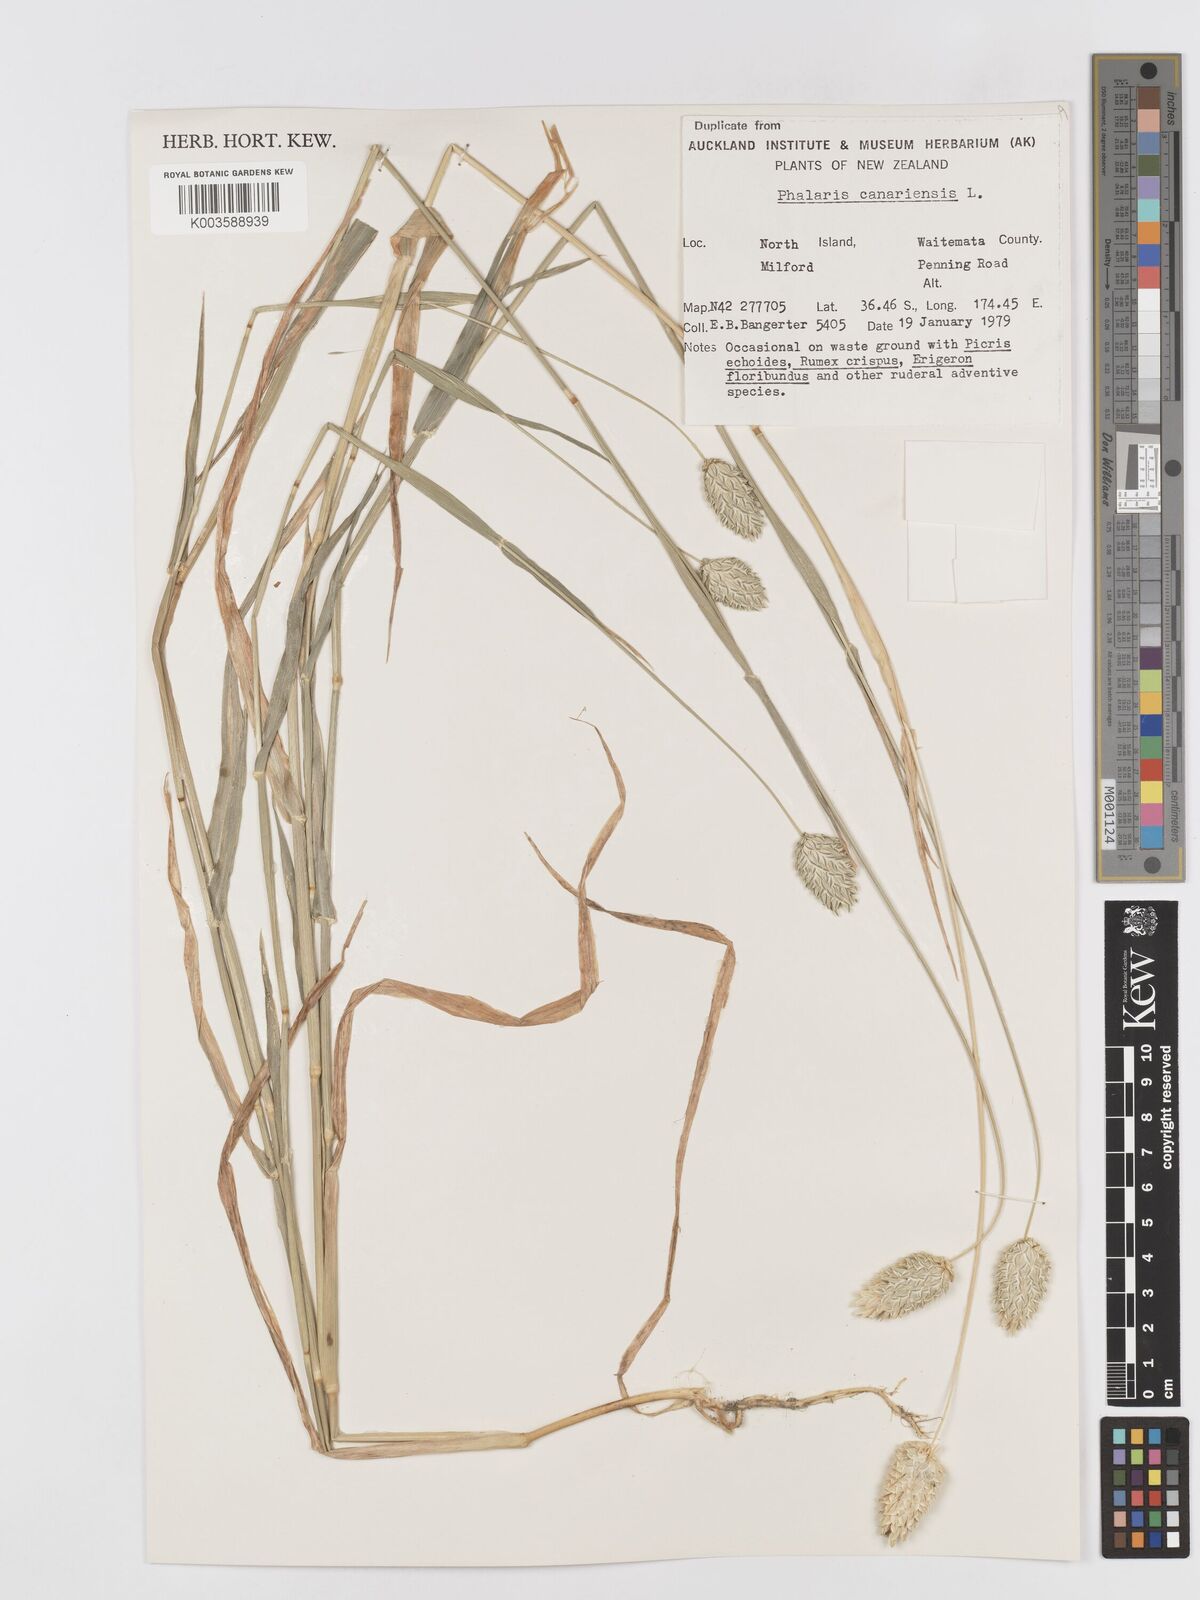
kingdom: Plantae
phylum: Tracheophyta
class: Liliopsida
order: Poales
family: Poaceae
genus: Phalaris
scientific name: Phalaris canariensis
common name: Annual canarygrass
